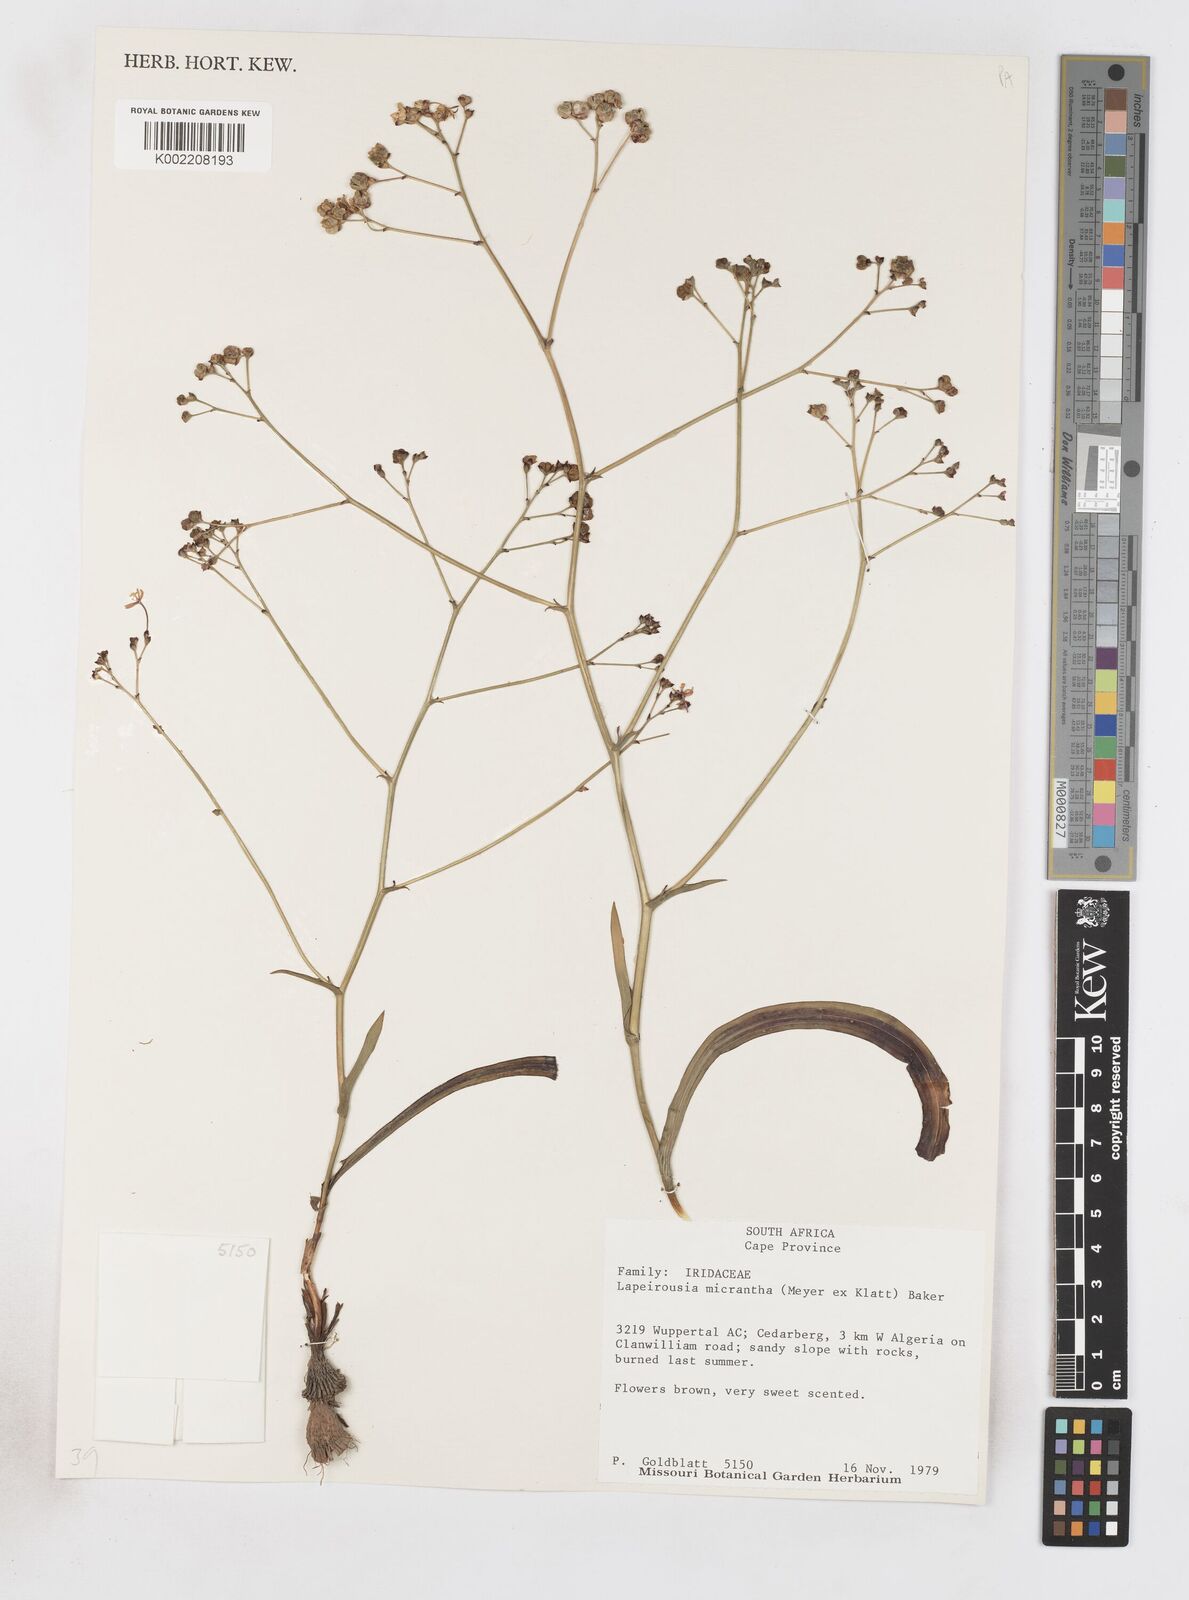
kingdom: Plantae
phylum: Tracheophyta
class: Liliopsida
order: Asparagales
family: Iridaceae
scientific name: Iridaceae
